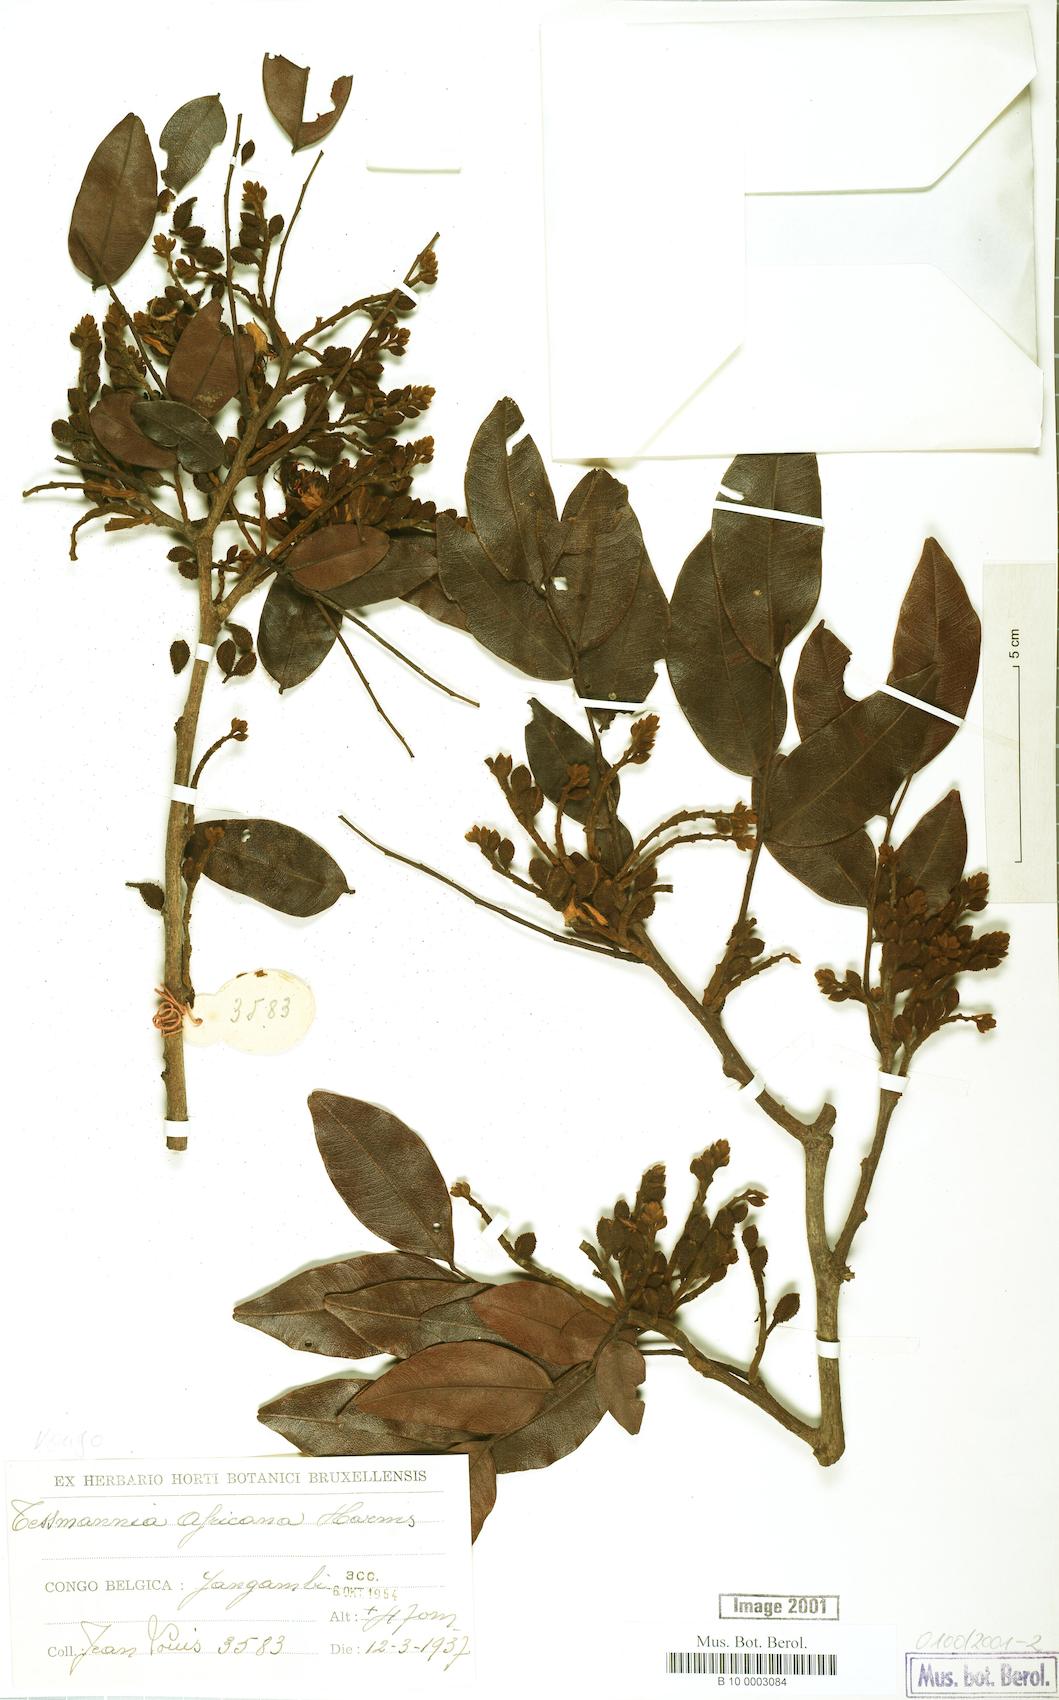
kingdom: Plantae
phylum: Tracheophyta
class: Magnoliopsida
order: Fabales
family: Fabaceae
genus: Tessmannia
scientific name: Tessmannia africana
